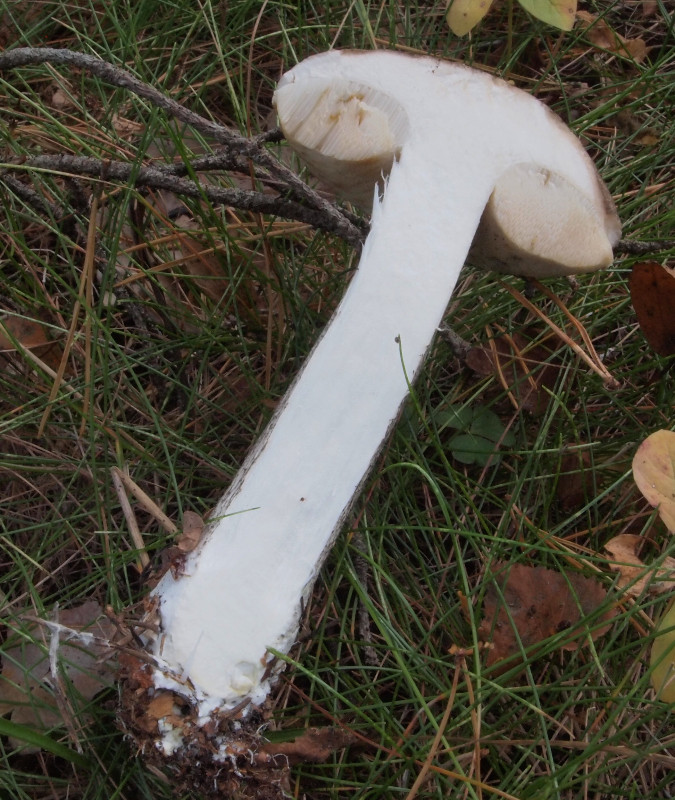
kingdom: Fungi
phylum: Basidiomycota
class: Agaricomycetes
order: Boletales
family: Boletaceae
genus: Leccinum
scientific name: Leccinum variicolor
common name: flammet skælrørhat
